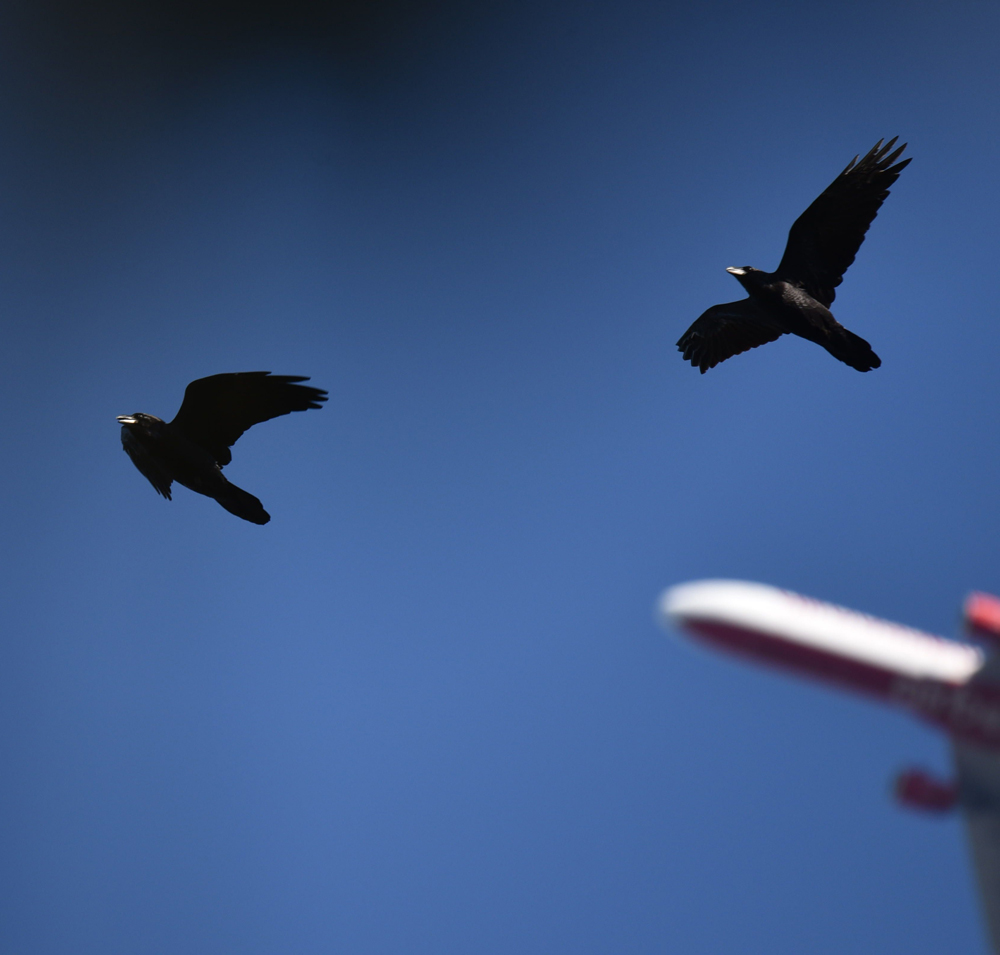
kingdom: Animalia
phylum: Chordata
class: Aves
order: Passeriformes
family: Corvidae
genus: Corvus
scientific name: Corvus corax
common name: Common raven
